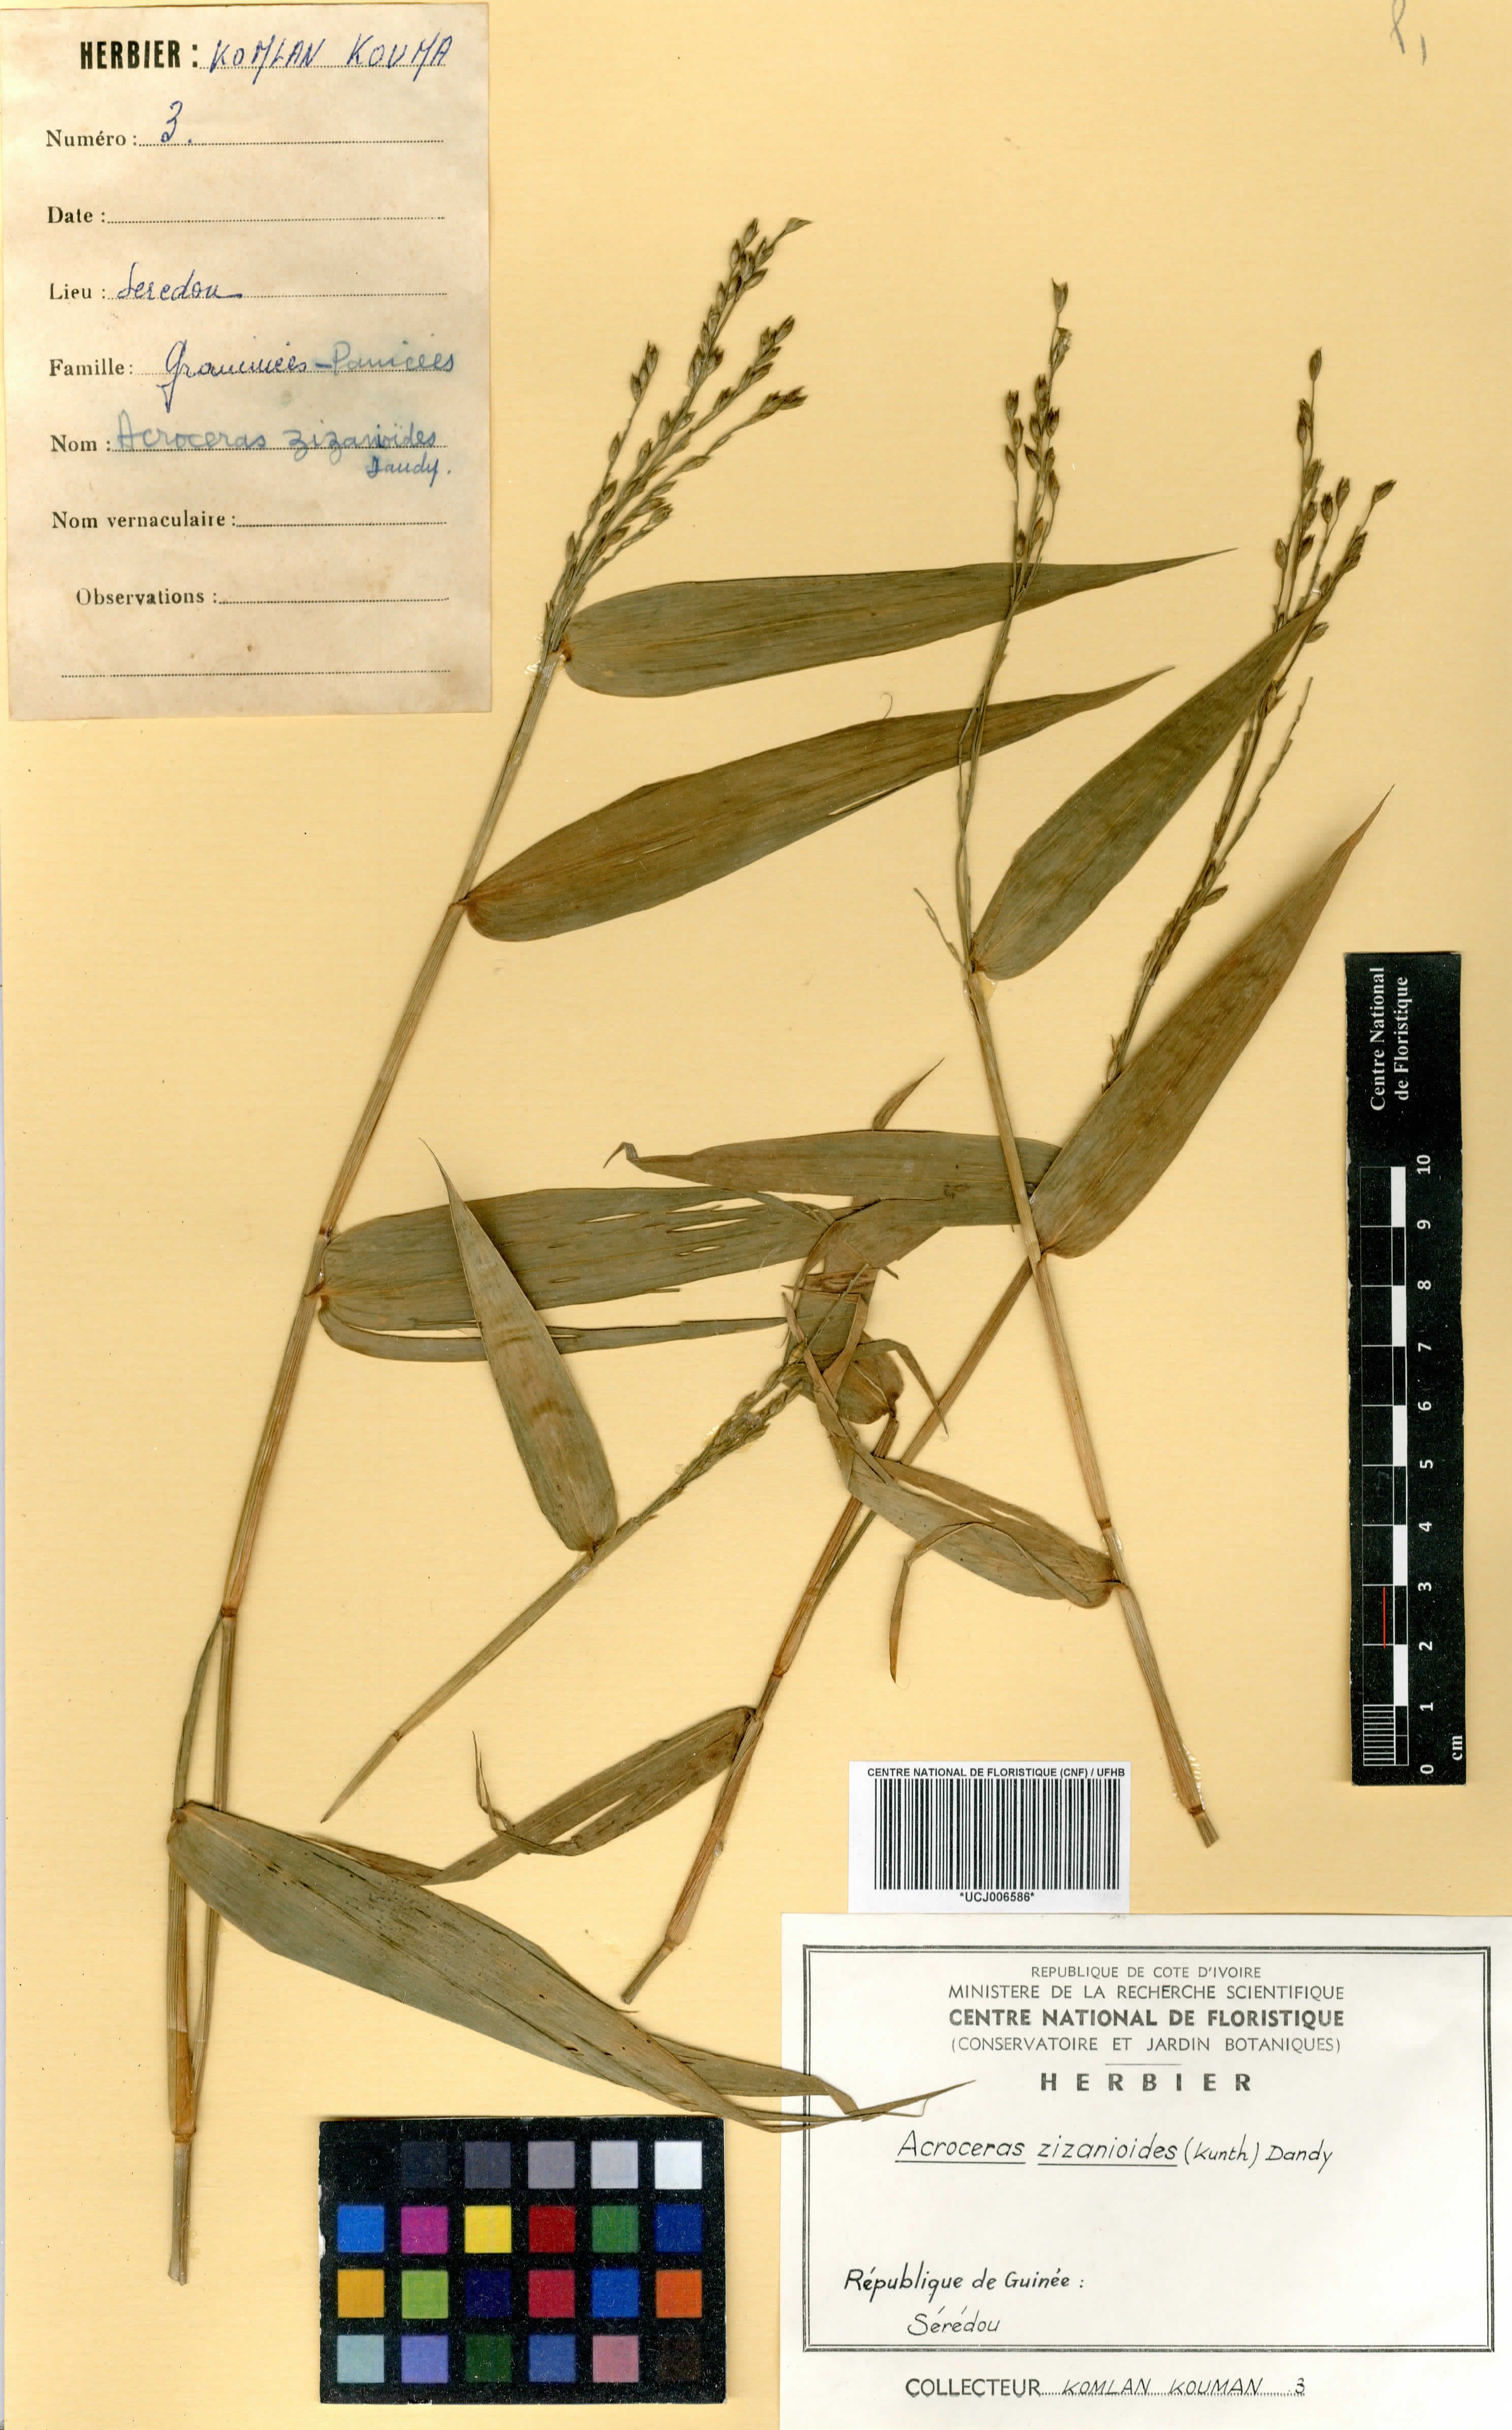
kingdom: Plantae
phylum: Tracheophyta
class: Liliopsida
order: Poales
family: Poaceae
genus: Acroceras
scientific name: Acroceras zizanioides
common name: Oat grass
